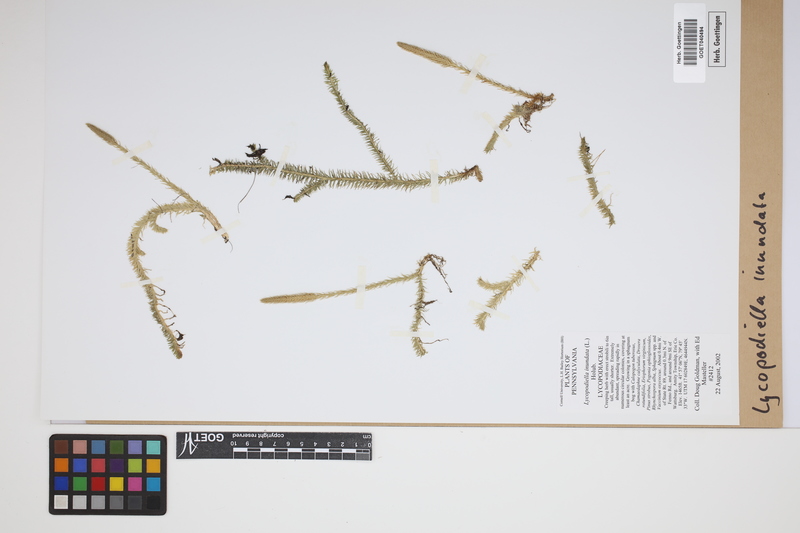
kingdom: Plantae
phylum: Tracheophyta
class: Lycopodiopsida
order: Lycopodiales
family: Lycopodiaceae
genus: Lycopodiella
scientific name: Lycopodiella inundata
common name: Marsh clubmoss
